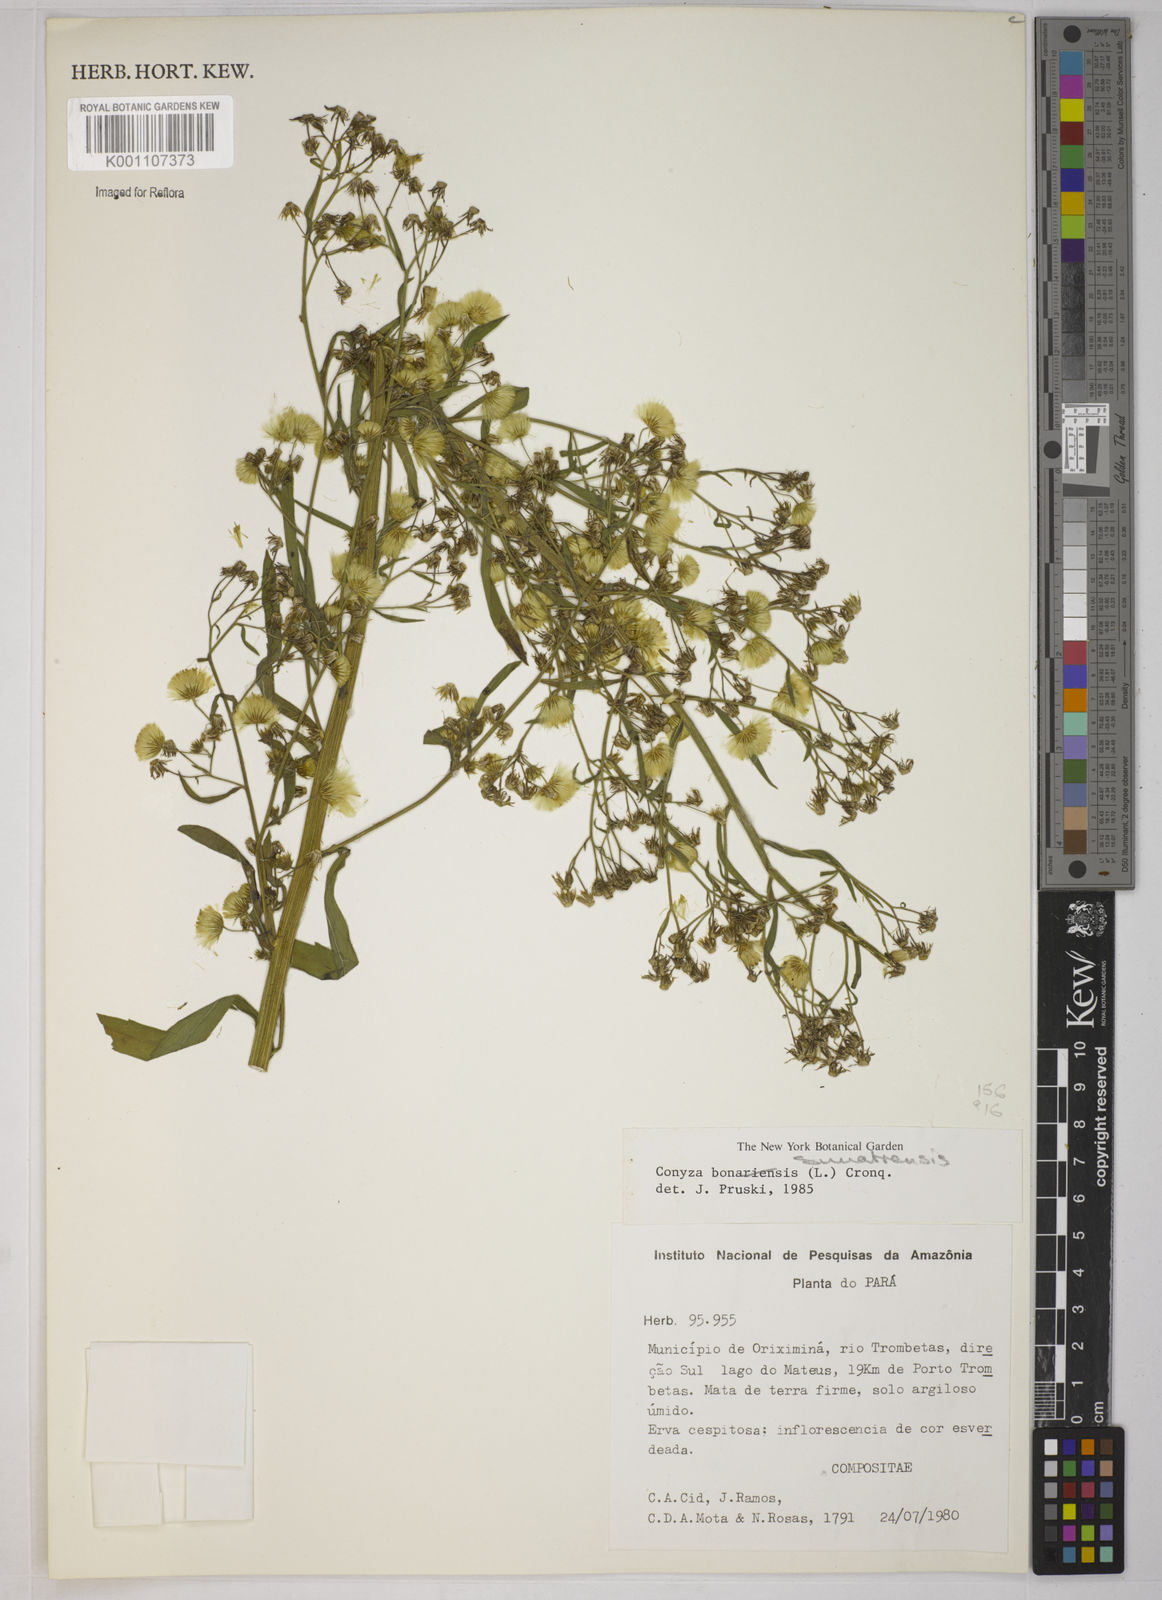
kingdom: Plantae
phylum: Tracheophyta
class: Magnoliopsida
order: Asterales
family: Asteraceae
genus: Erigeron
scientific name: Erigeron sumatrensis
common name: Daisy
